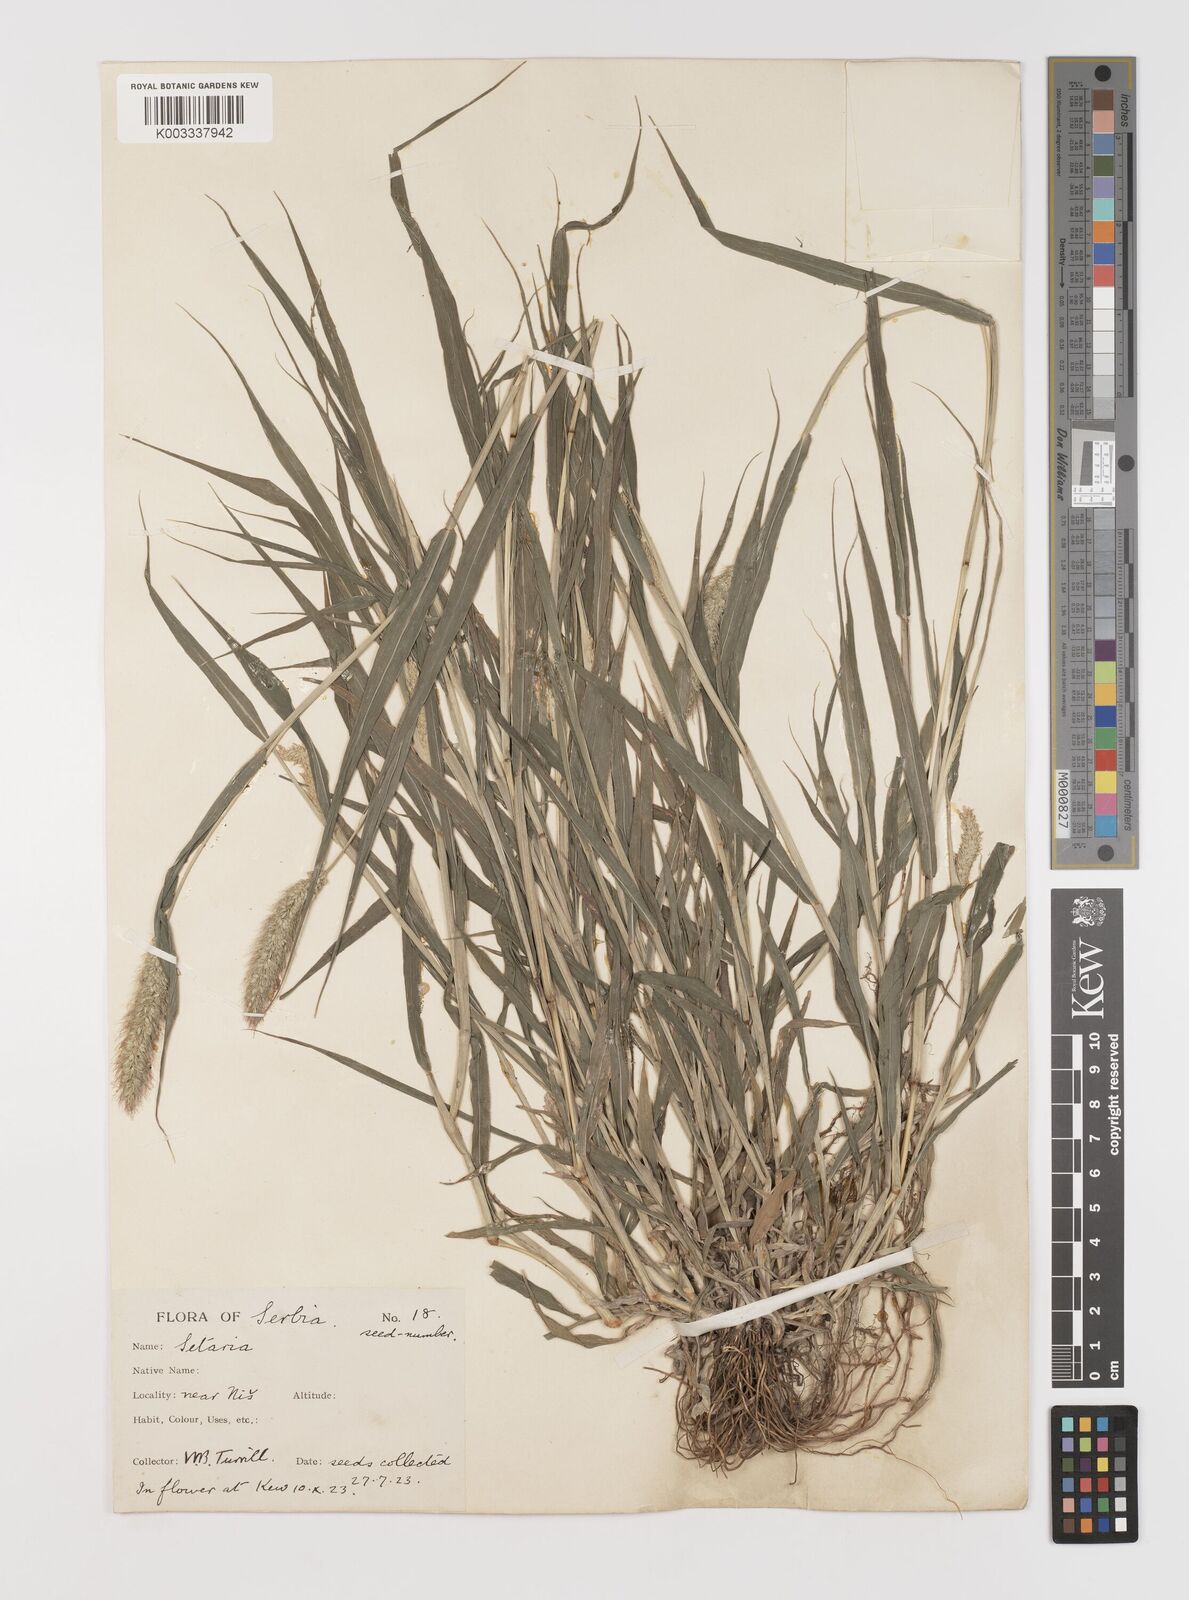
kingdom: Plantae
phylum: Tracheophyta
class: Liliopsida
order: Poales
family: Poaceae
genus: Setaria
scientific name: Setaria viridis
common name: Green bristlegrass
